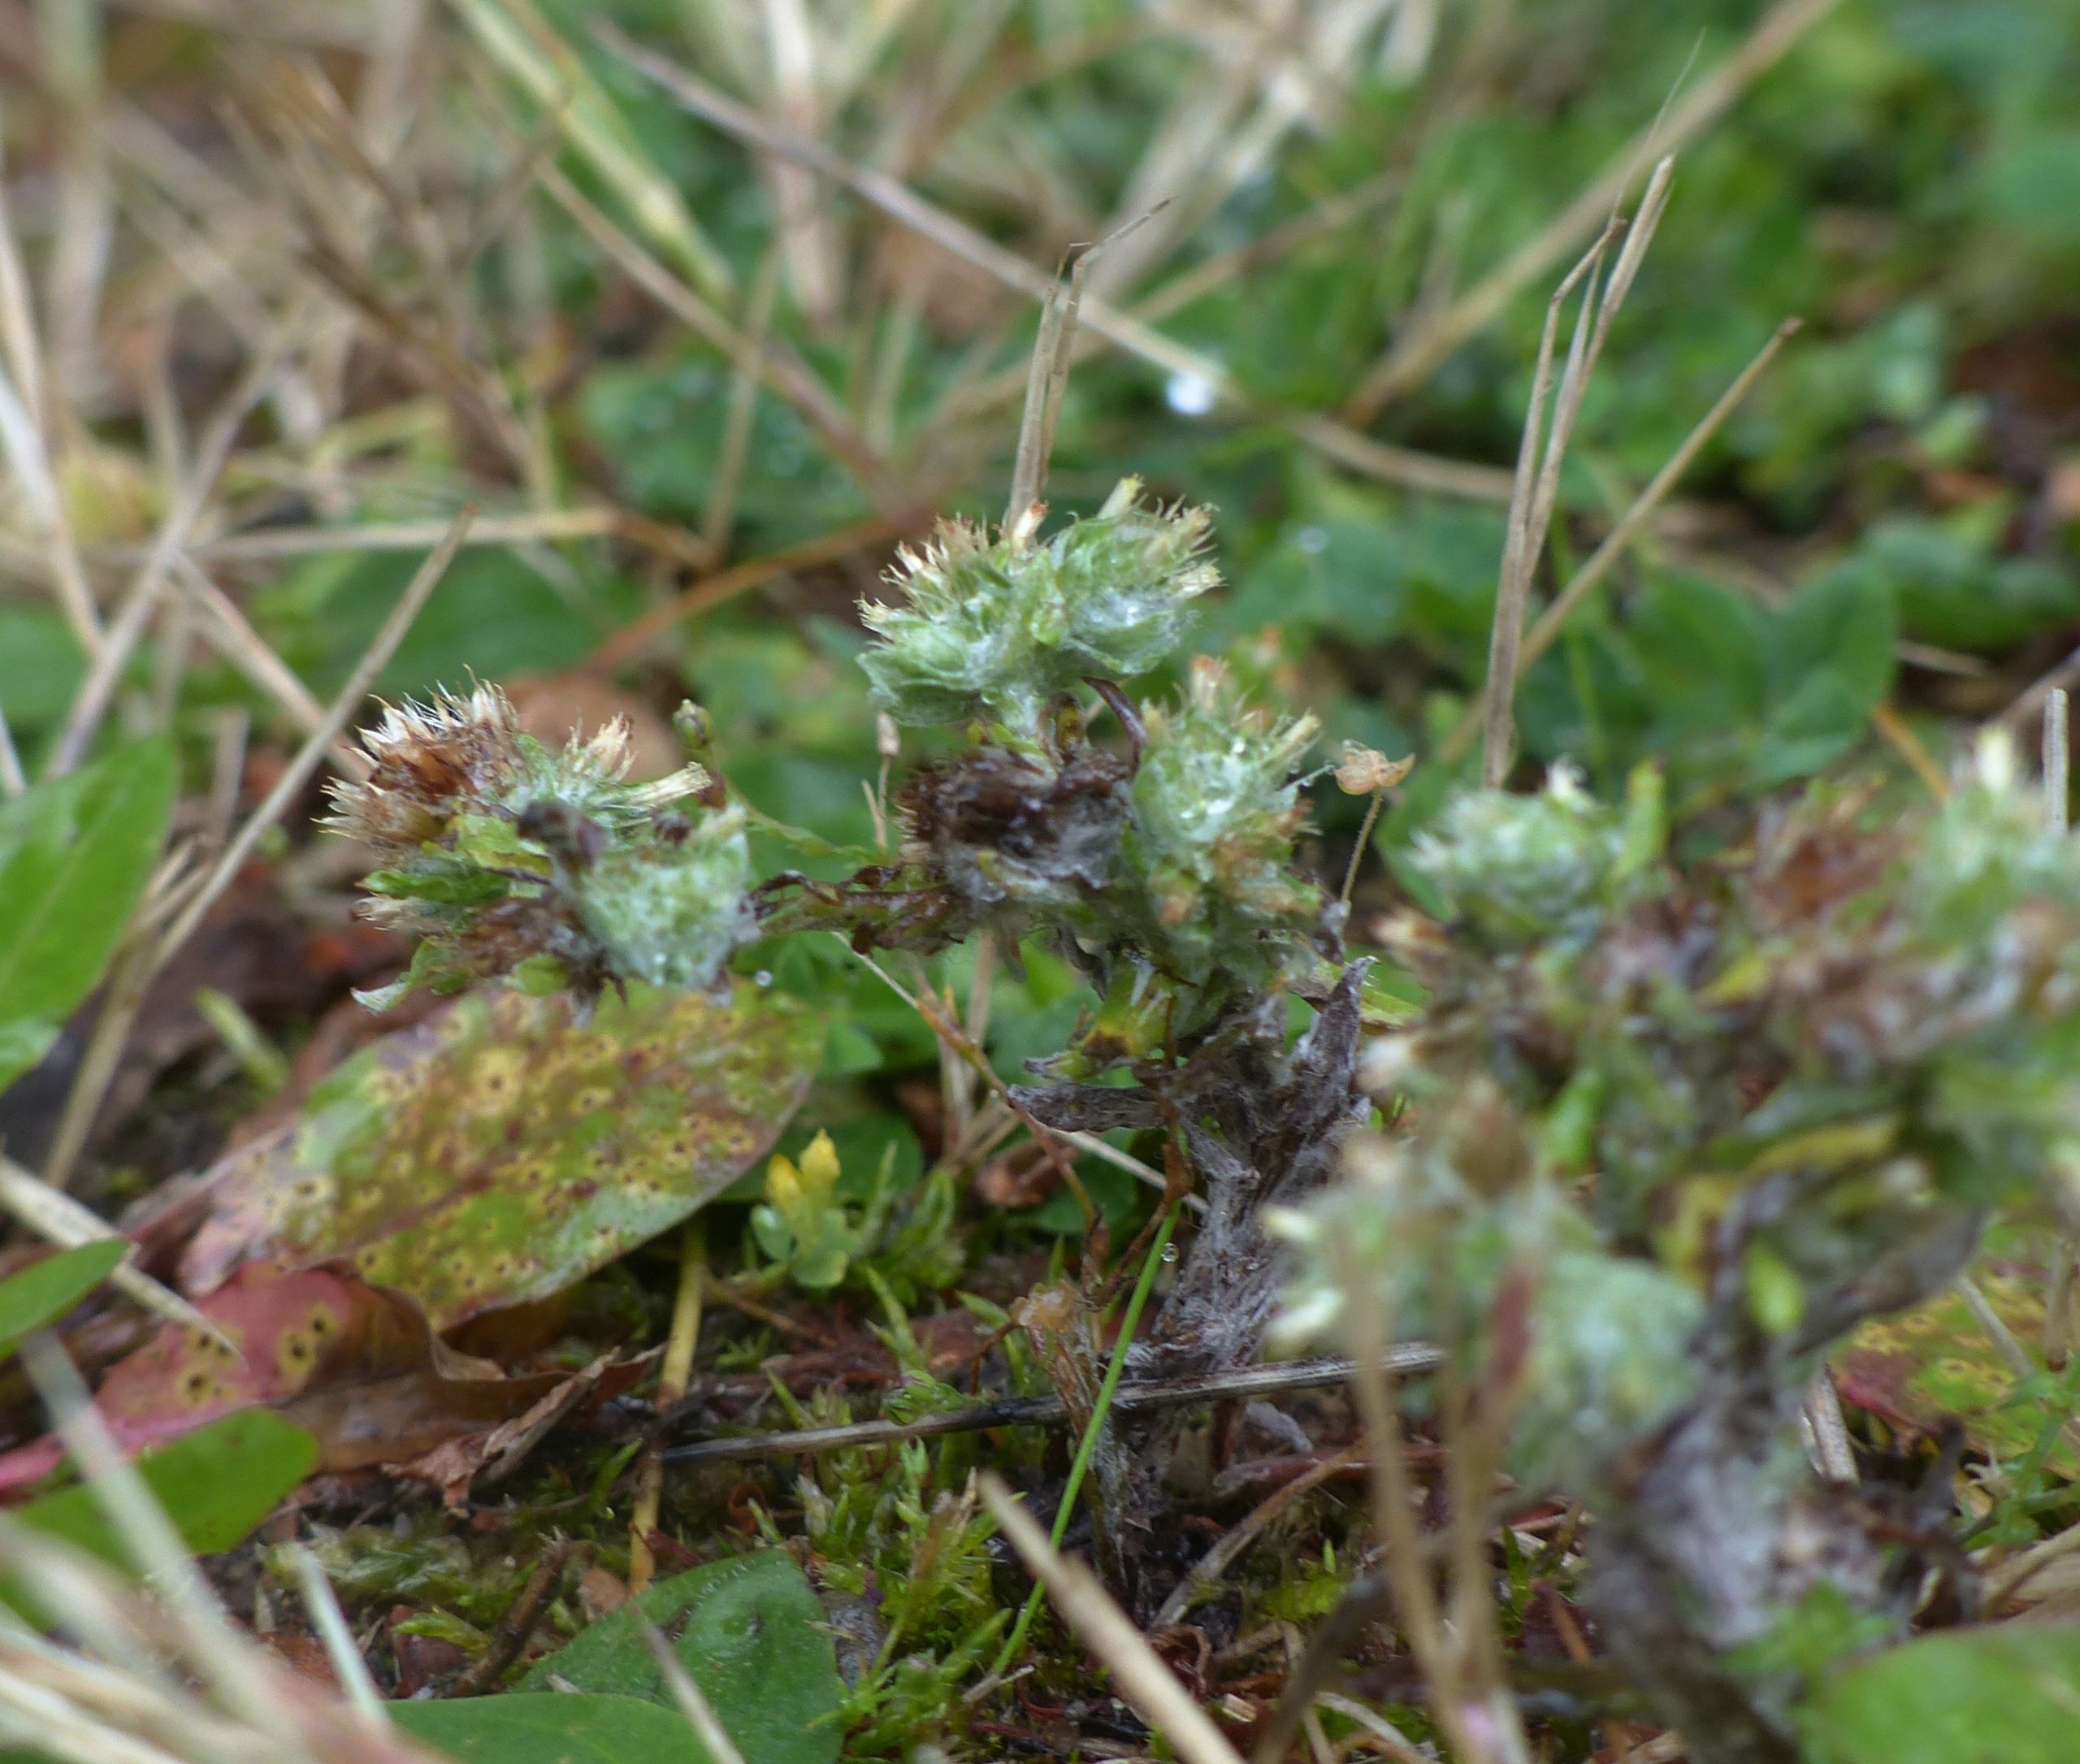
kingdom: Plantae
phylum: Tracheophyta
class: Magnoliopsida
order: Asterales
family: Asteraceae
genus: Filago
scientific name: Filago germanica
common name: Kugle-museurt
